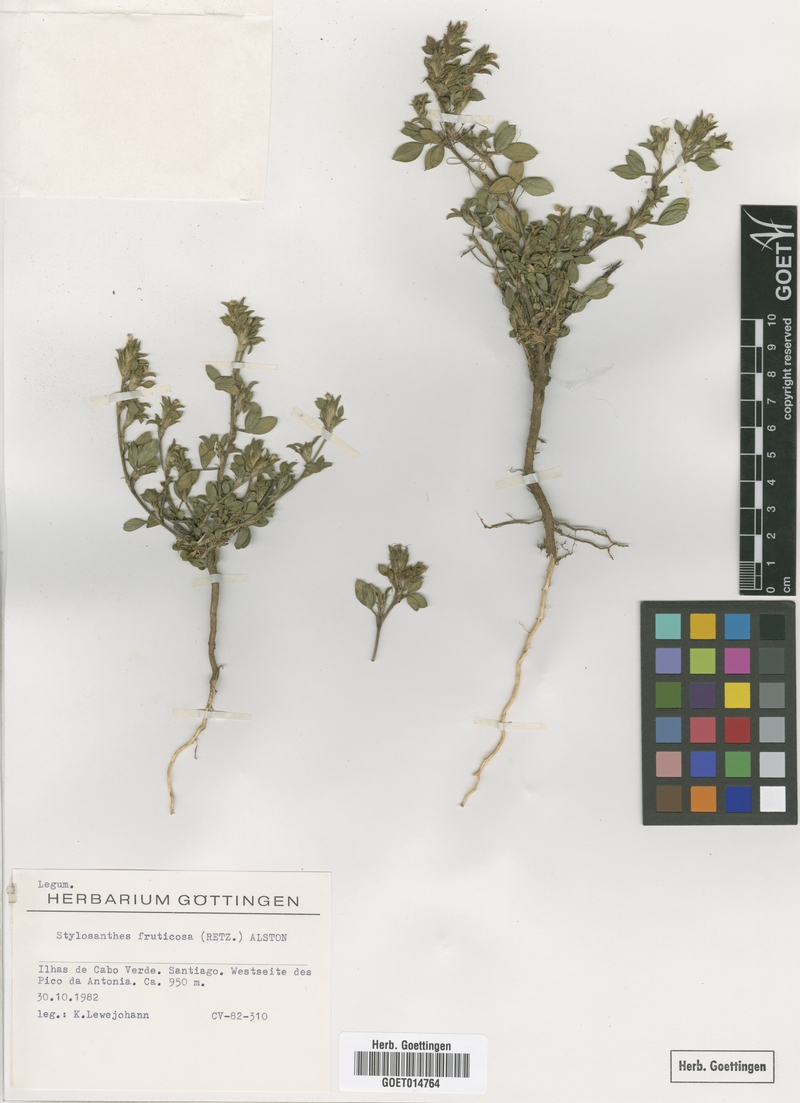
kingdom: Plantae
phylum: Tracheophyta
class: Magnoliopsida
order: Fabales
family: Fabaceae
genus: Stylosanthes
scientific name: Stylosanthes fruticosa
